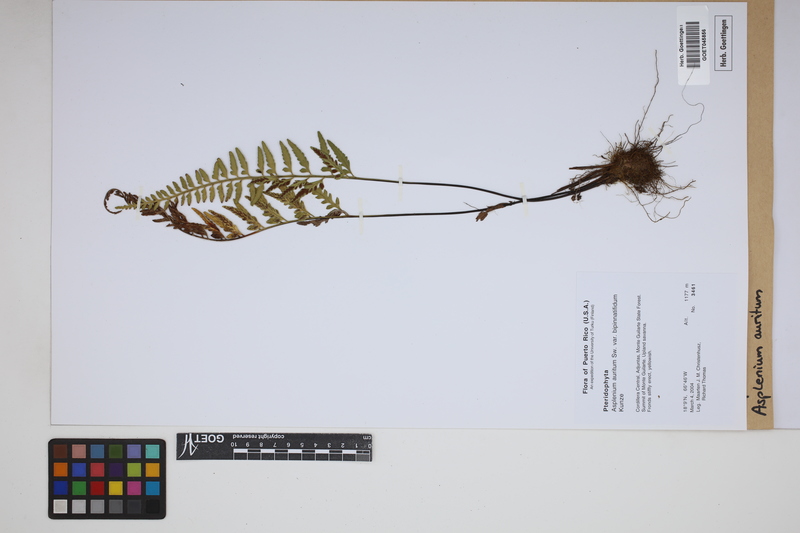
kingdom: Plantae
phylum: Tracheophyta
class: Polypodiopsida
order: Polypodiales
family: Aspleniaceae
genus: Asplenium
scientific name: Asplenium auritum
